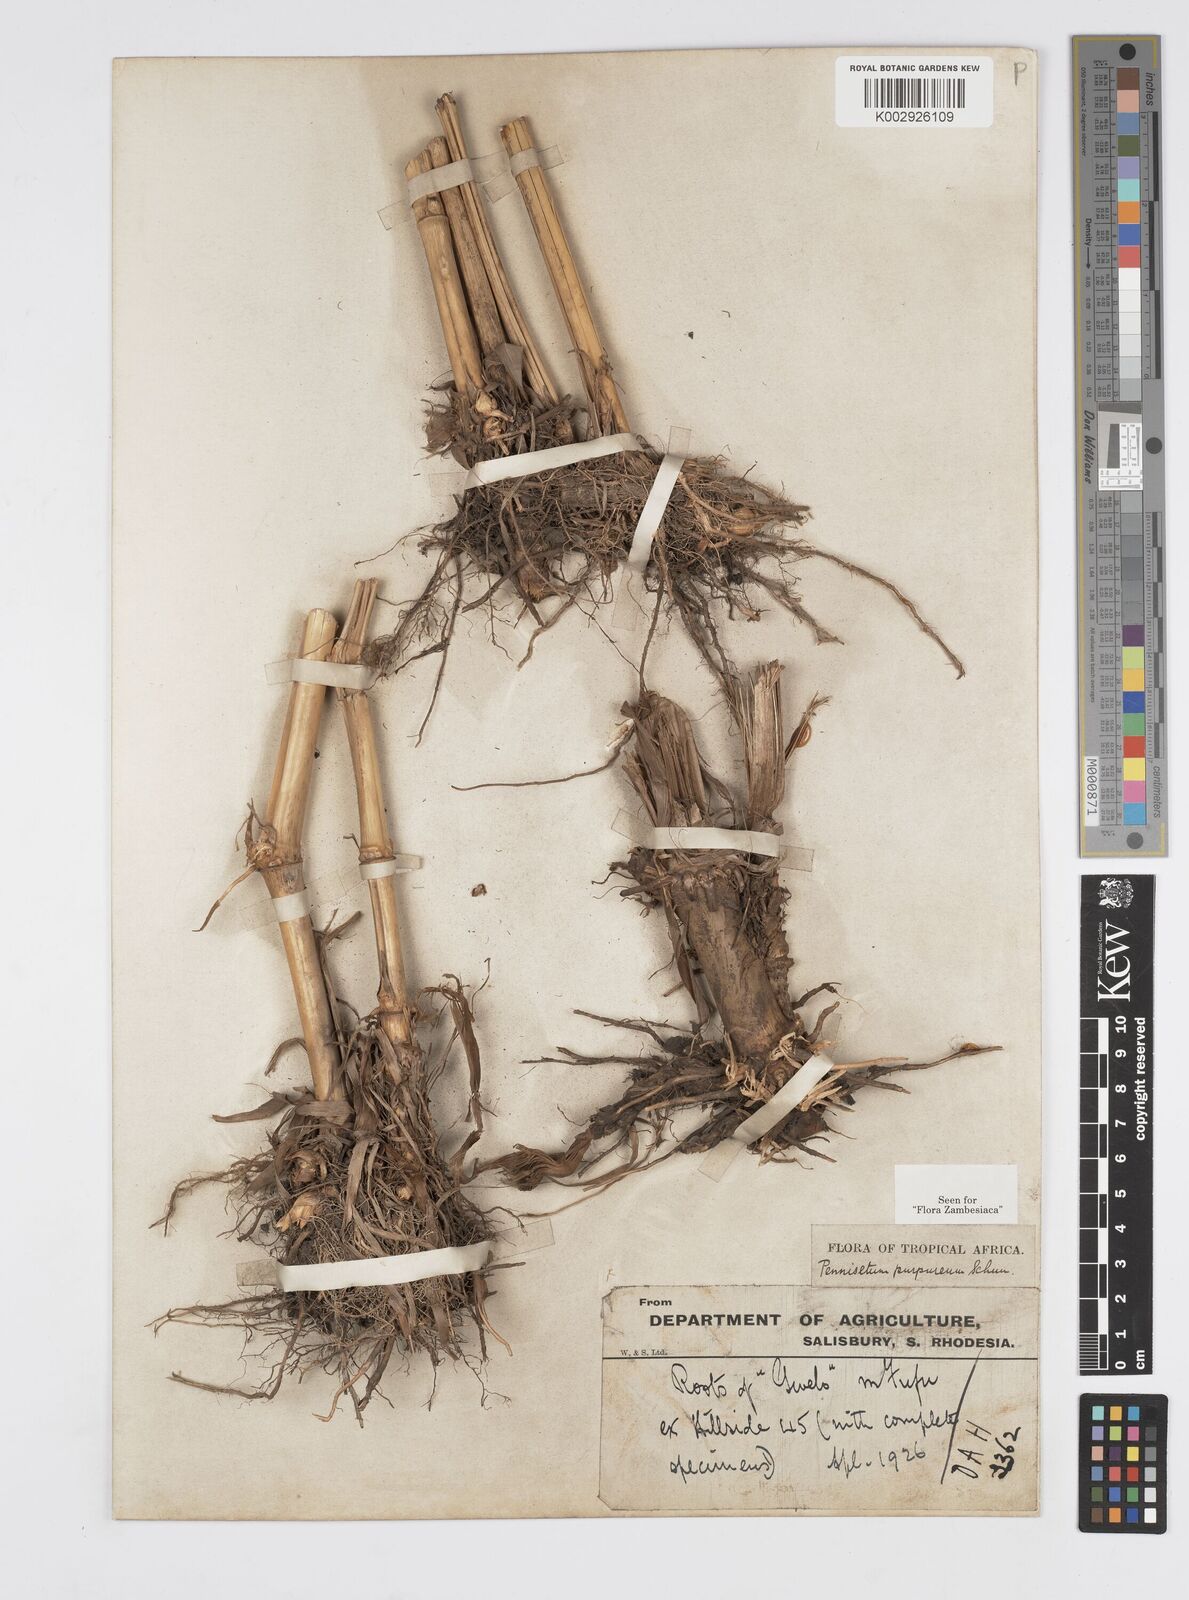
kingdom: Plantae
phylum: Tracheophyta
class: Liliopsida
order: Poales
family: Poaceae
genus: Cenchrus
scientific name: Cenchrus purpureus
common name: Elephant grass
